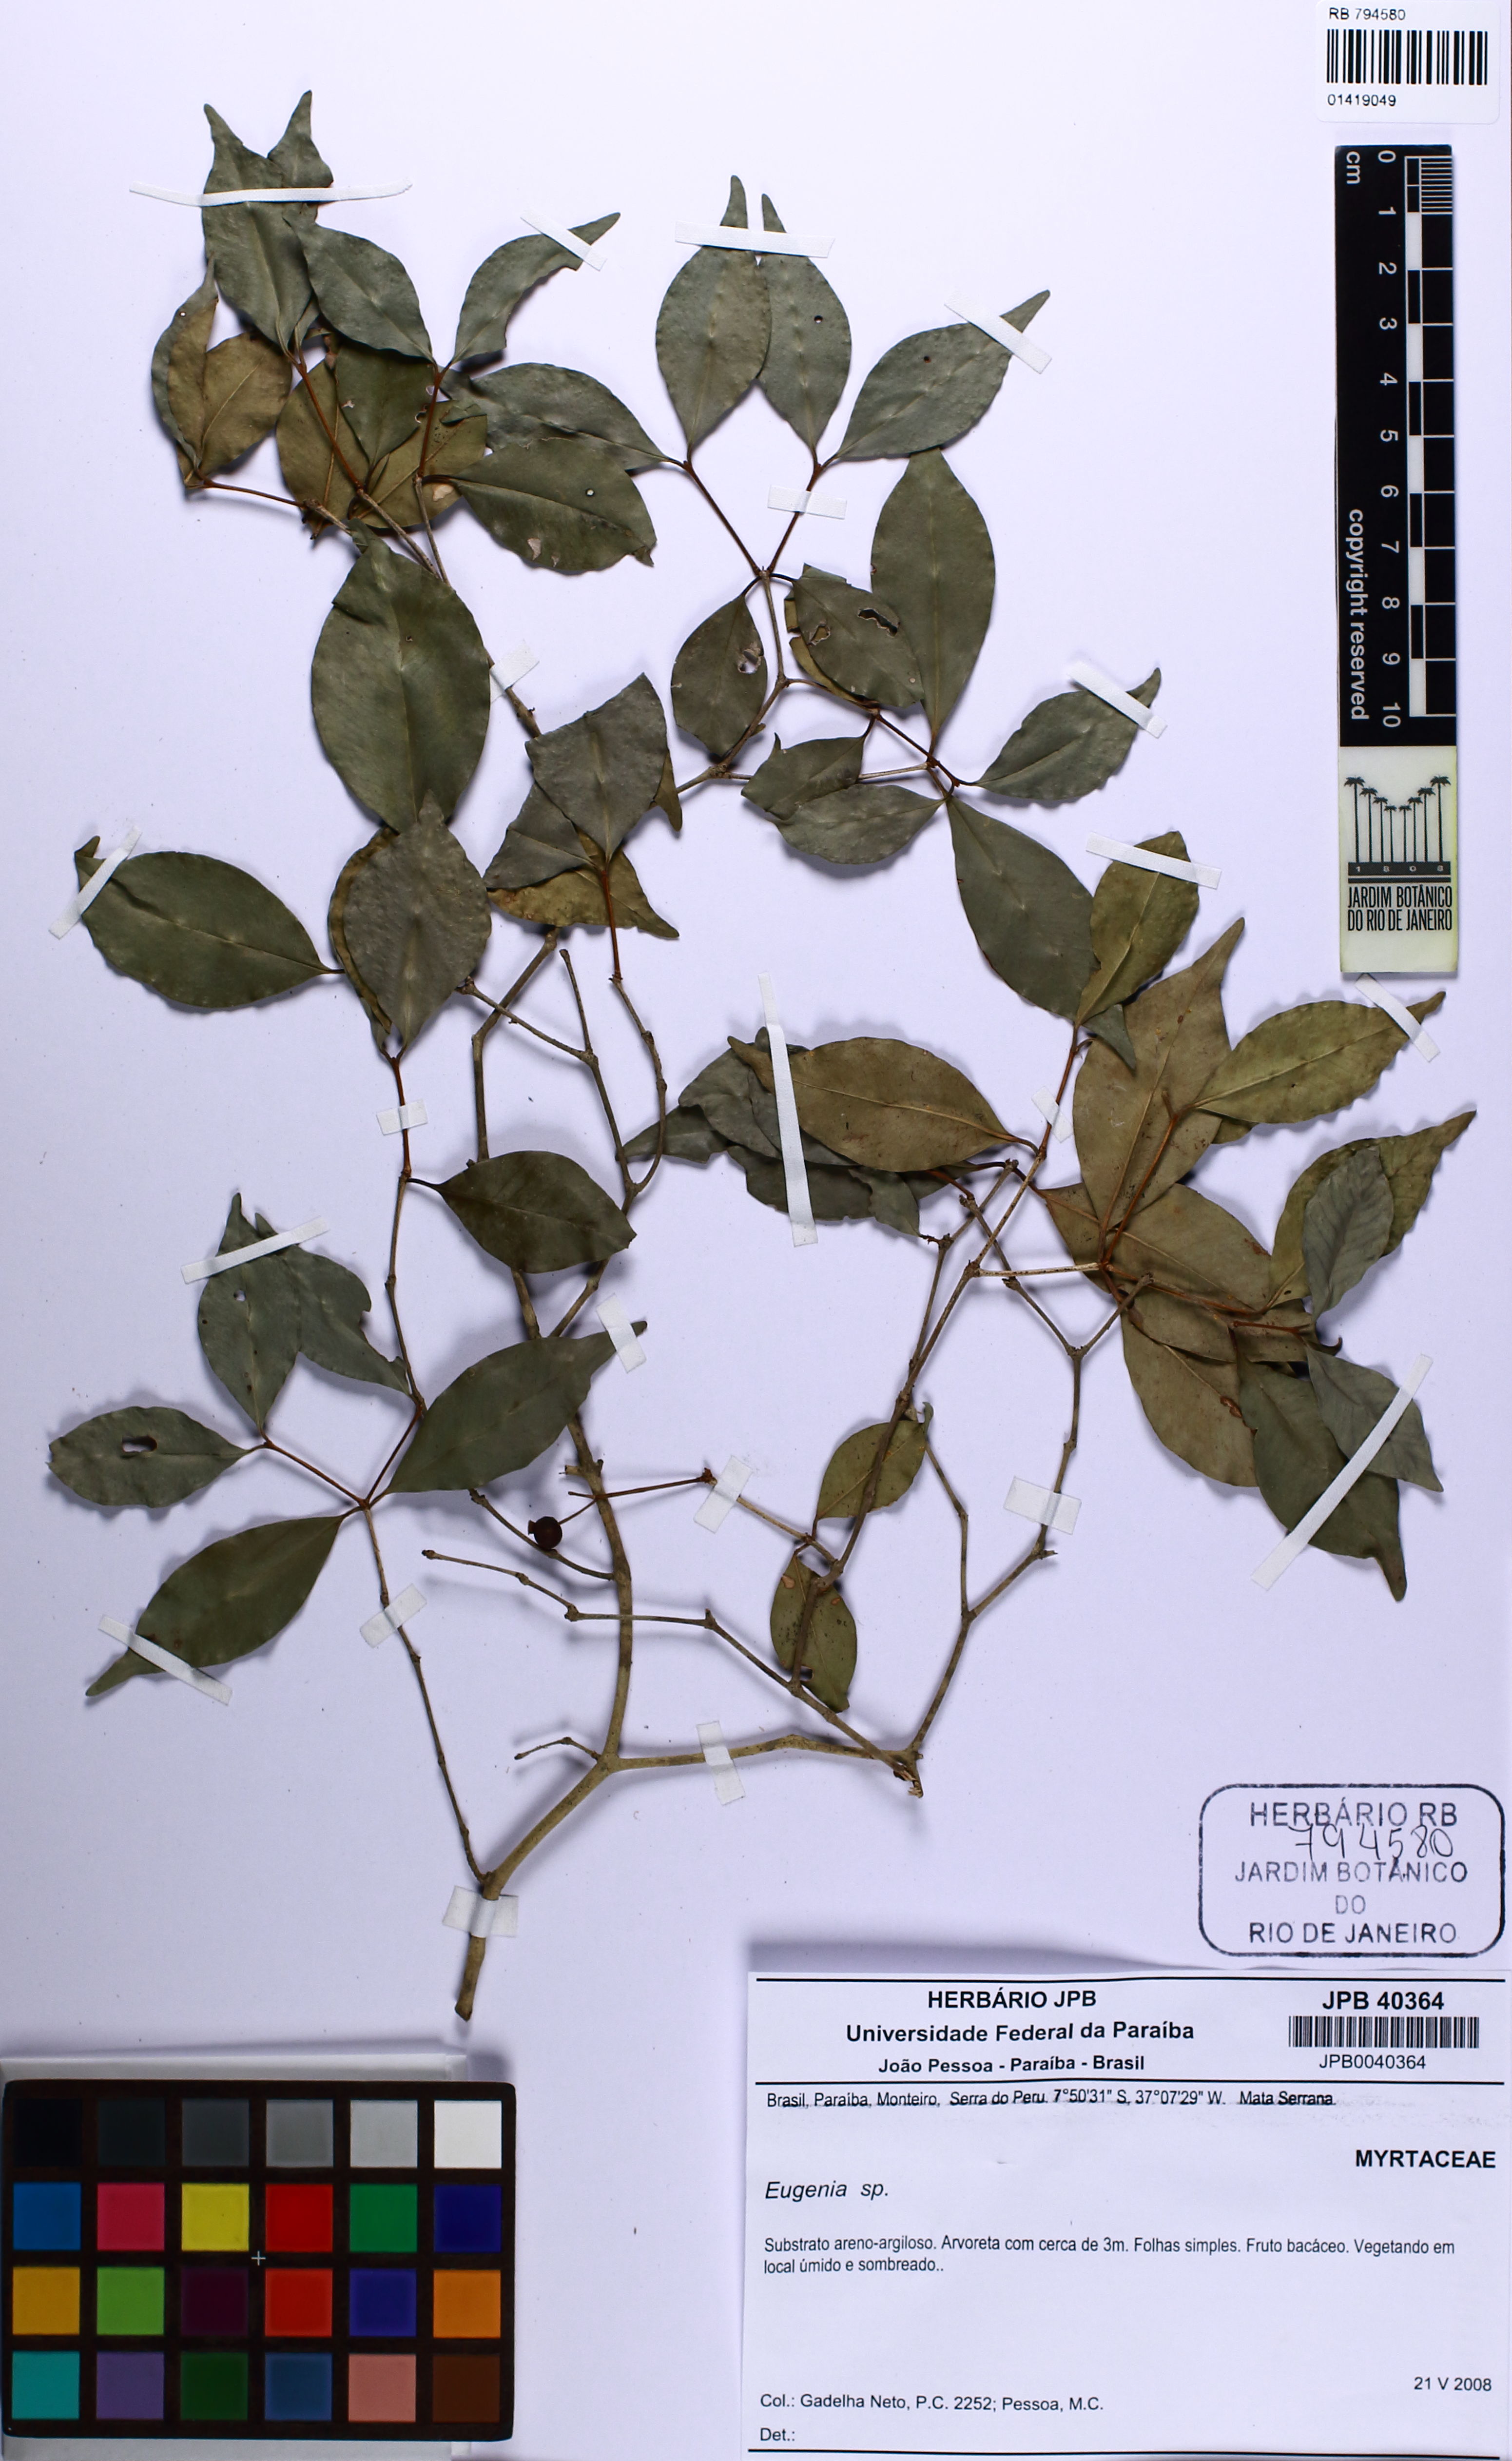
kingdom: Plantae
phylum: Tracheophyta
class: Magnoliopsida
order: Myrtales
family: Myrtaceae
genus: Myrcia
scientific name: Myrcia
